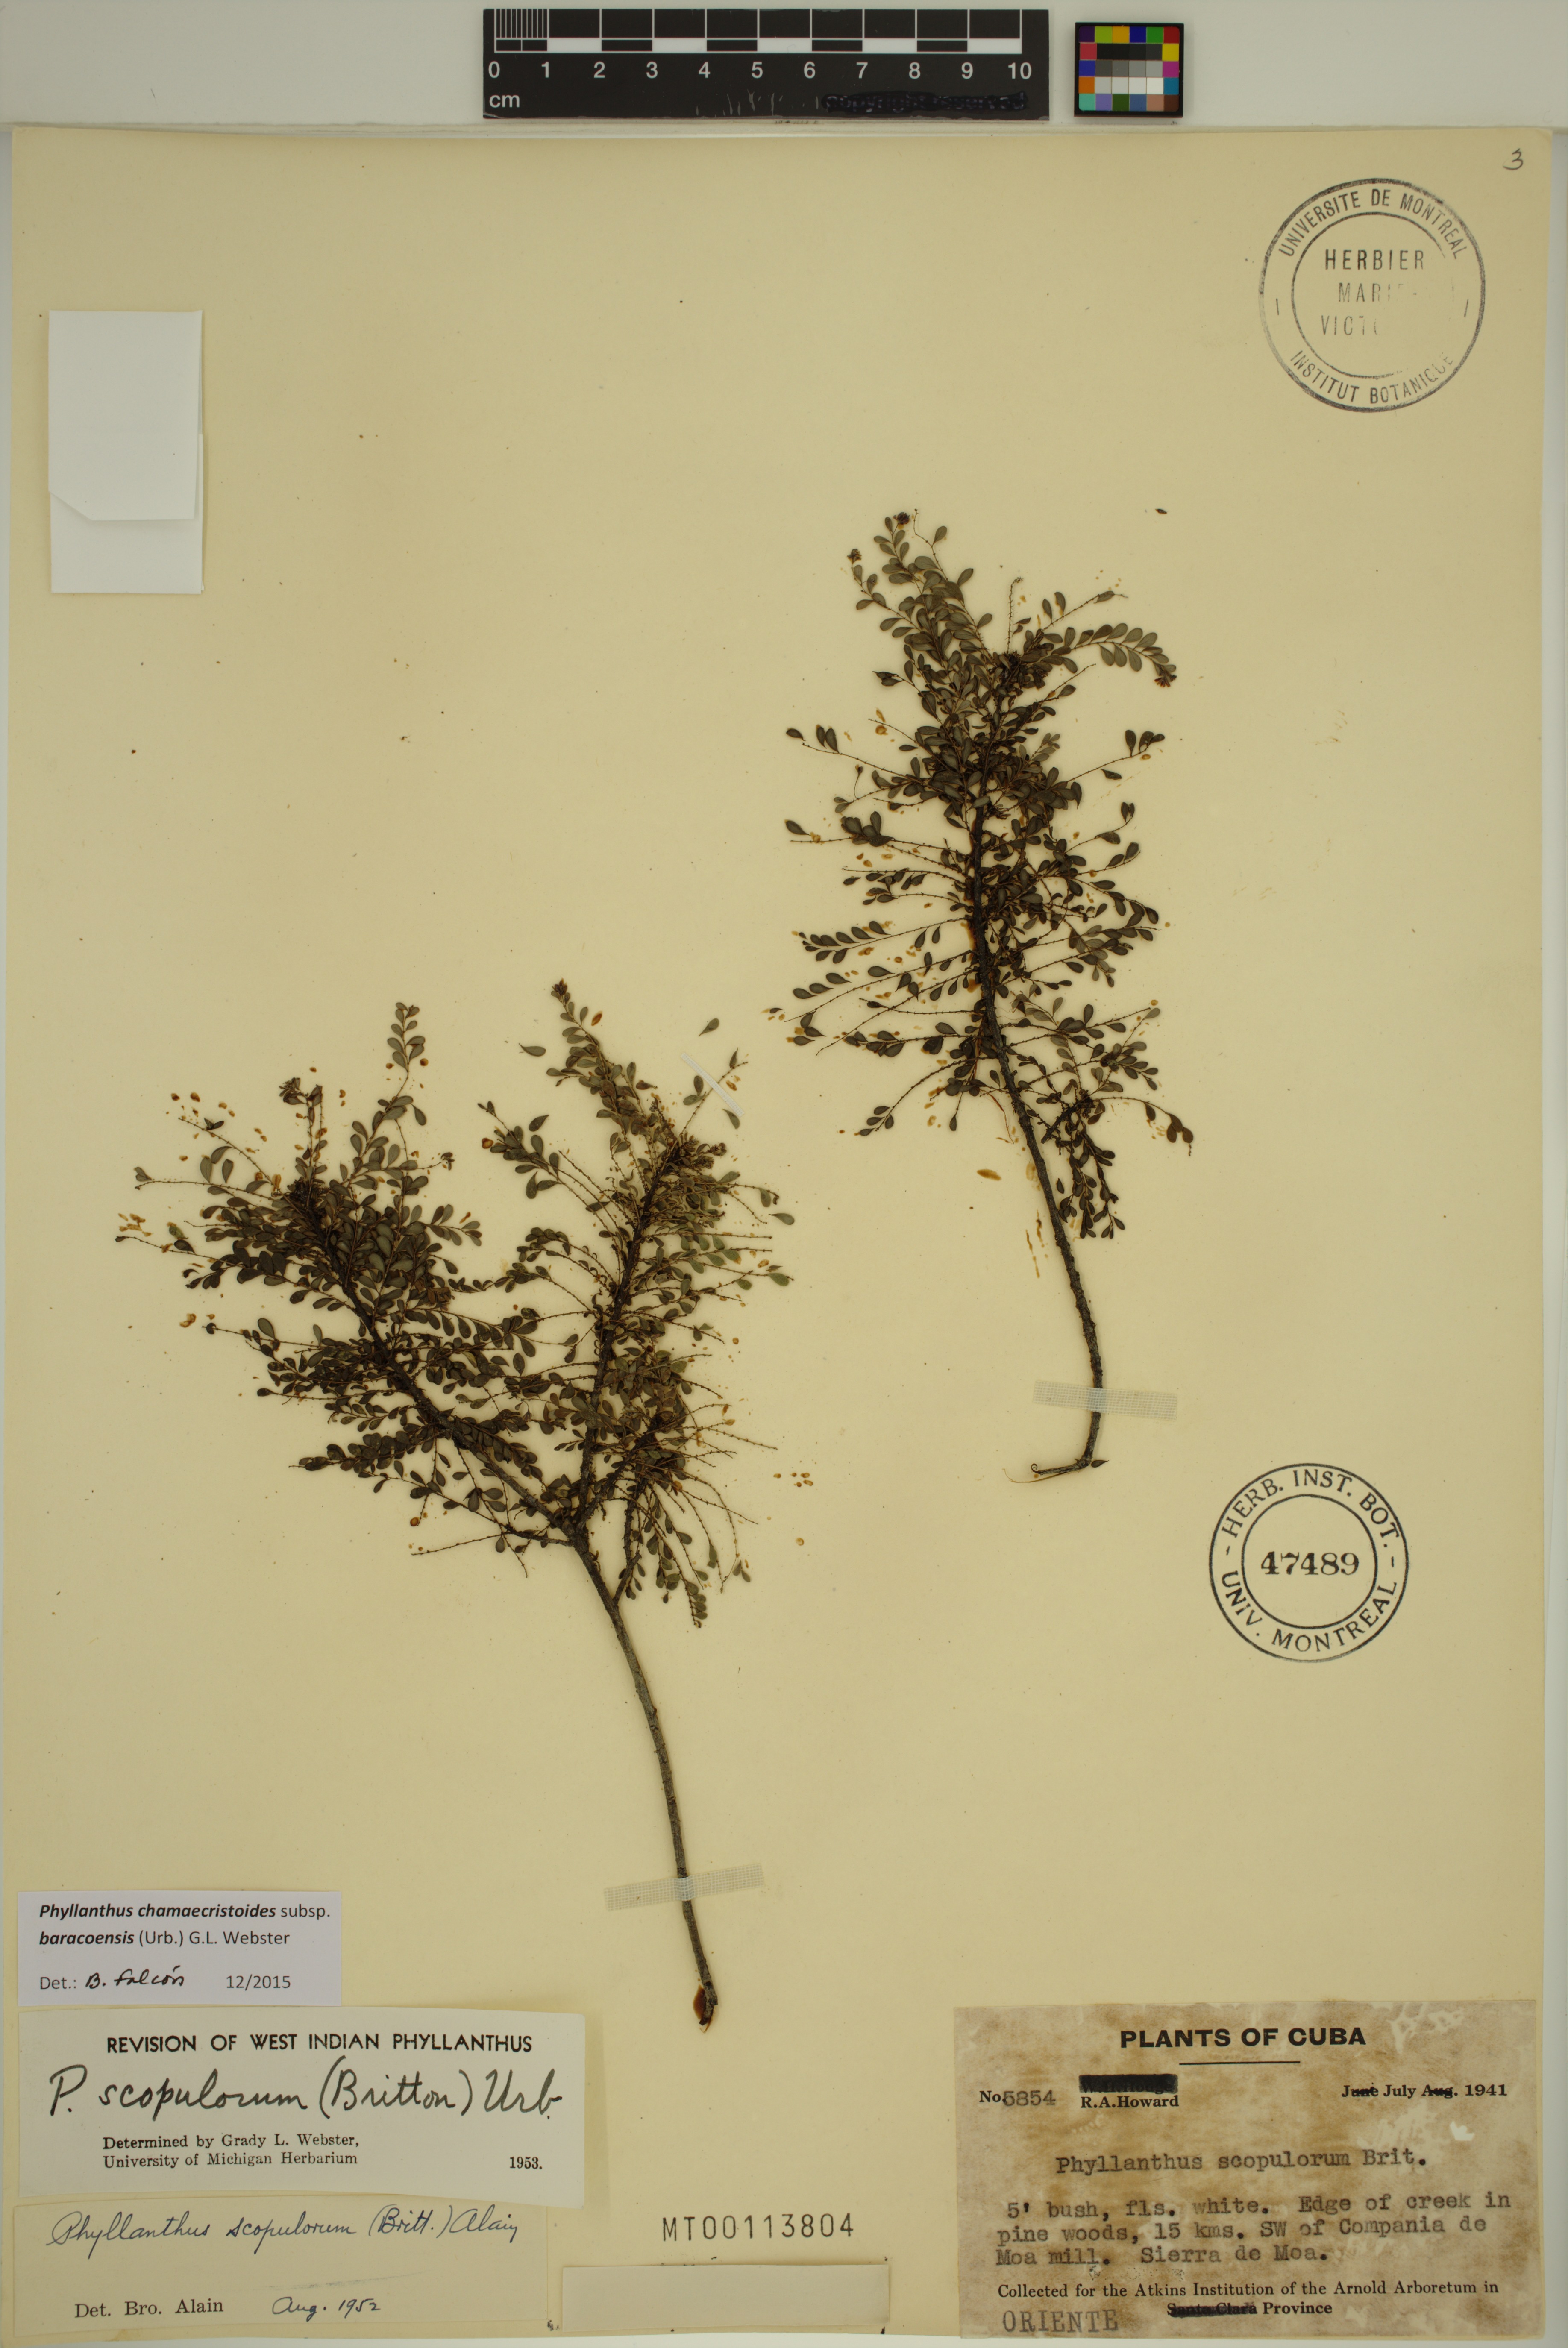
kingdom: Plantae
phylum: Tracheophyta
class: Magnoliopsida
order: Malpighiales
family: Phyllanthaceae
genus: Phyllanthus
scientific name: Phyllanthus chamaecristoides
